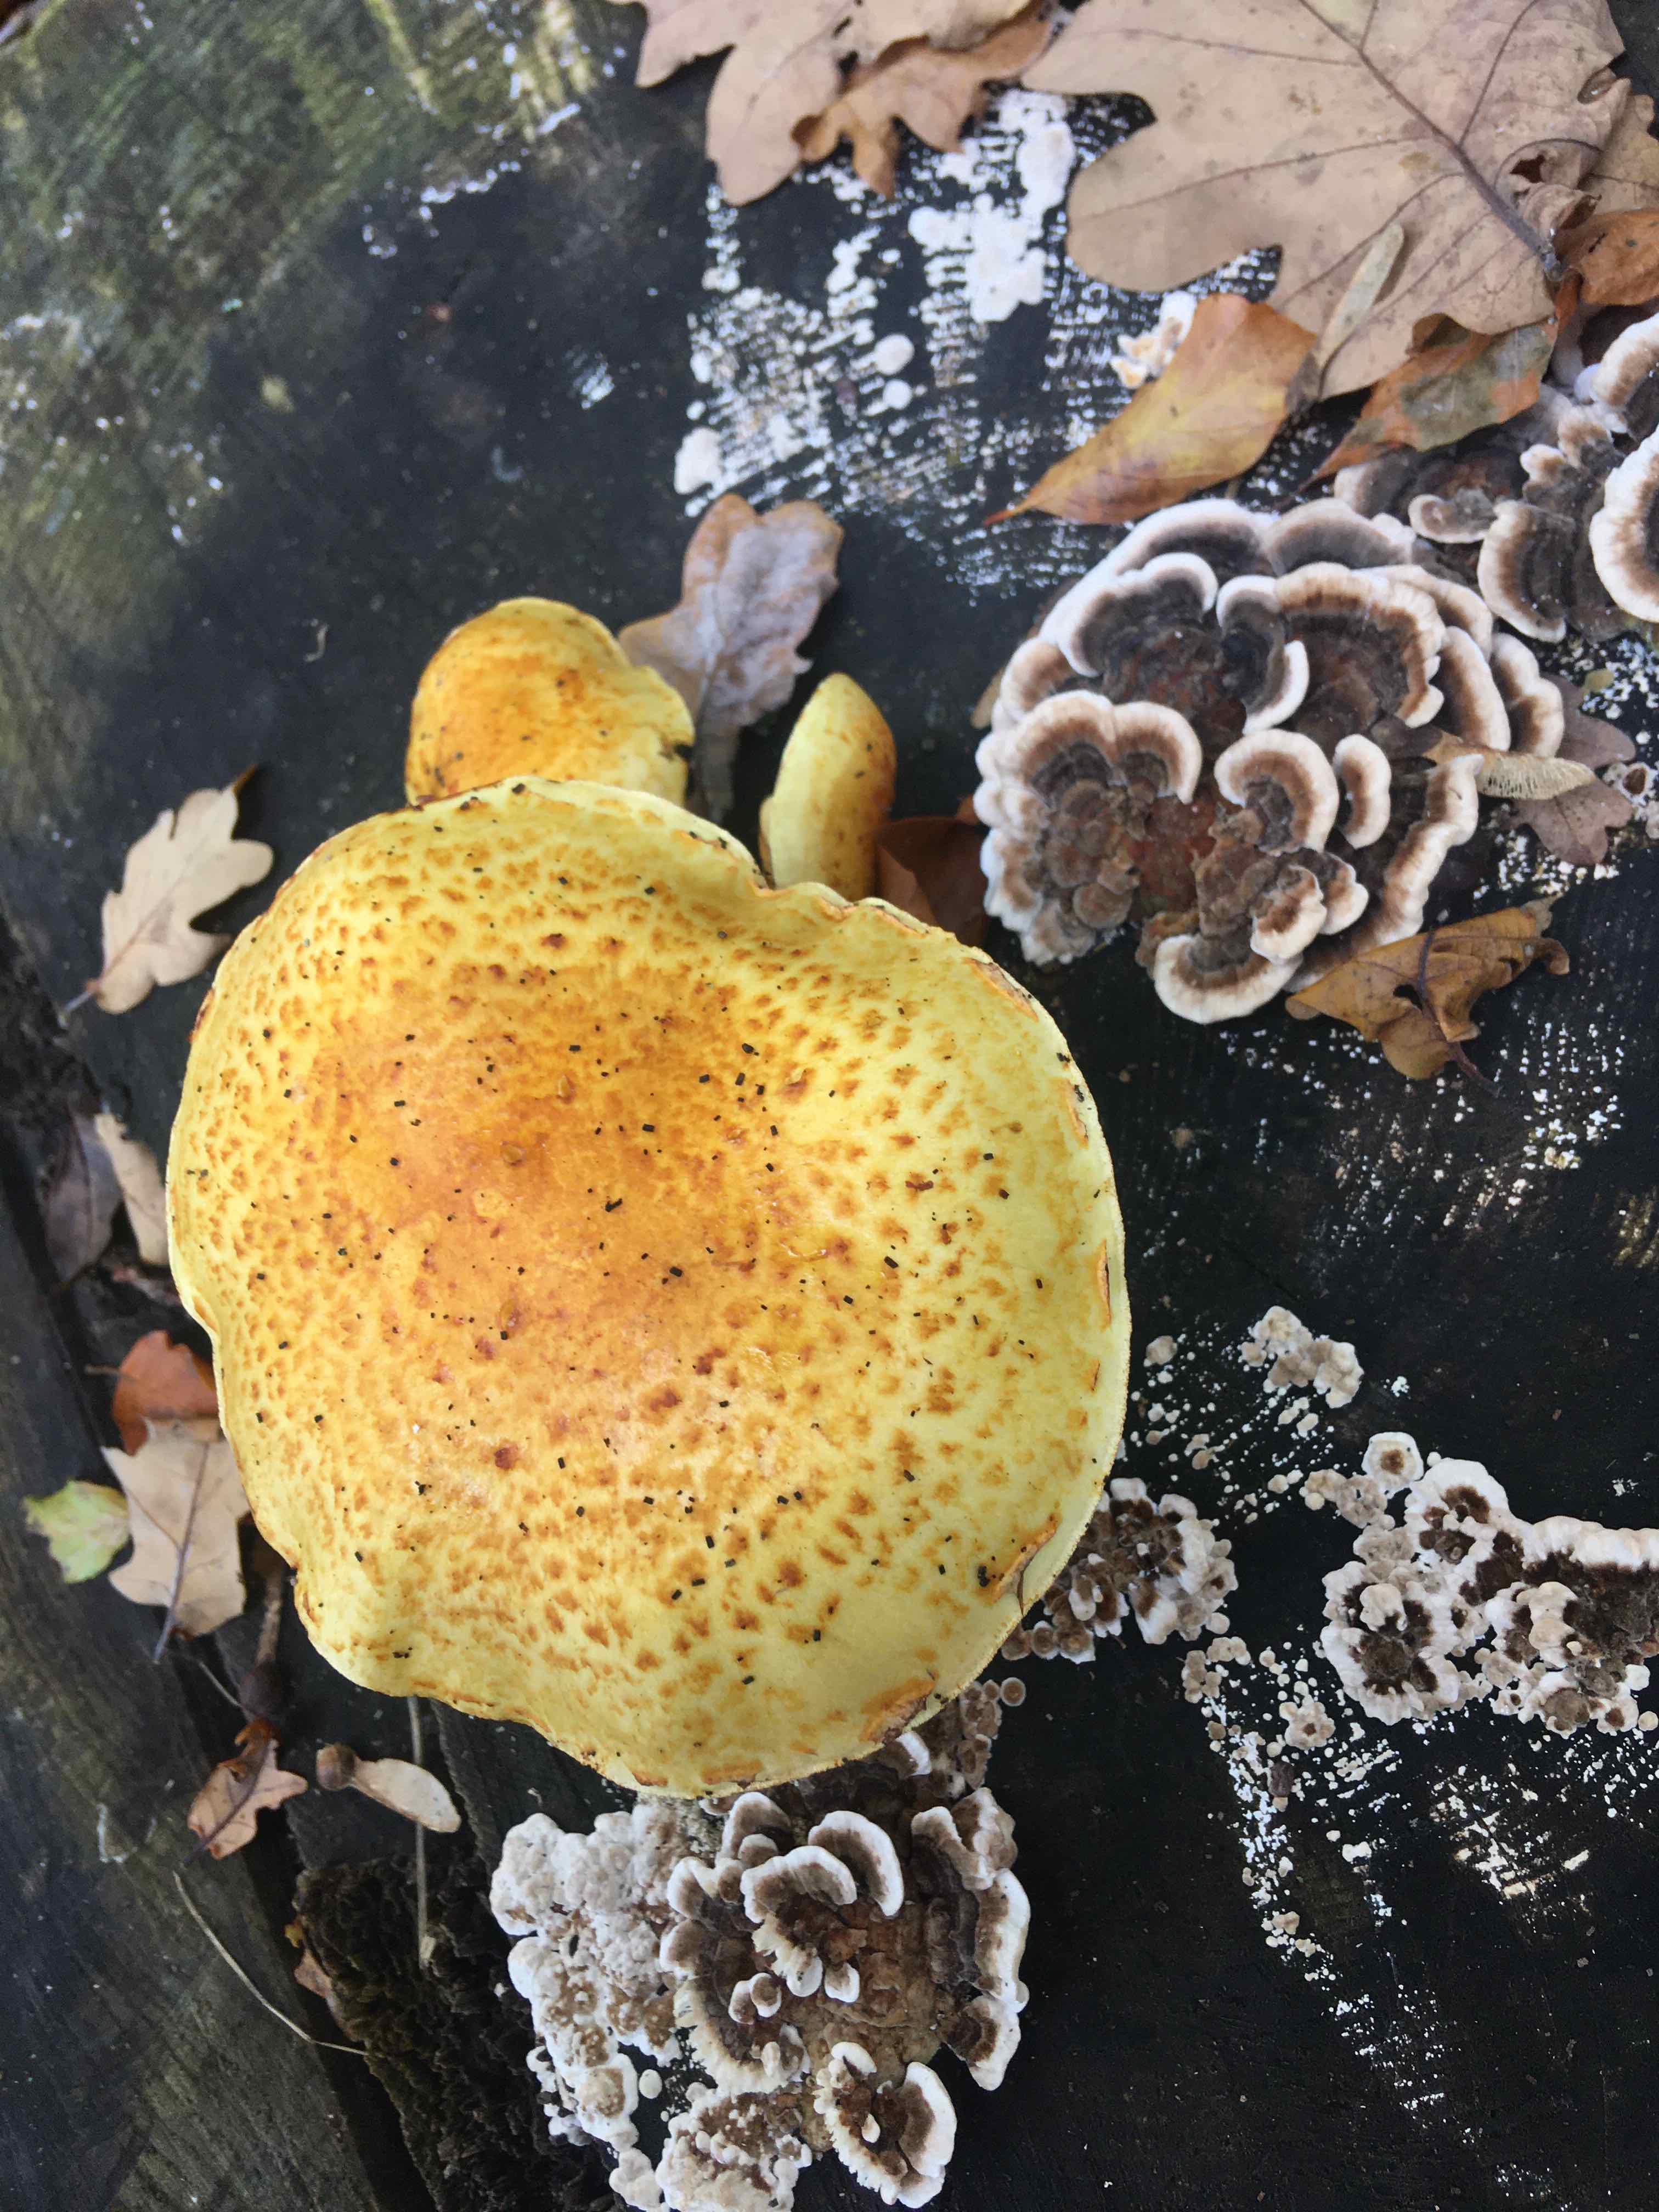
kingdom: Fungi
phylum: Basidiomycota
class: Agaricomycetes
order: Agaricales
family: Strophariaceae
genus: Pholiota
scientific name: Pholiota adiposa
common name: højtsiddende skælhat
